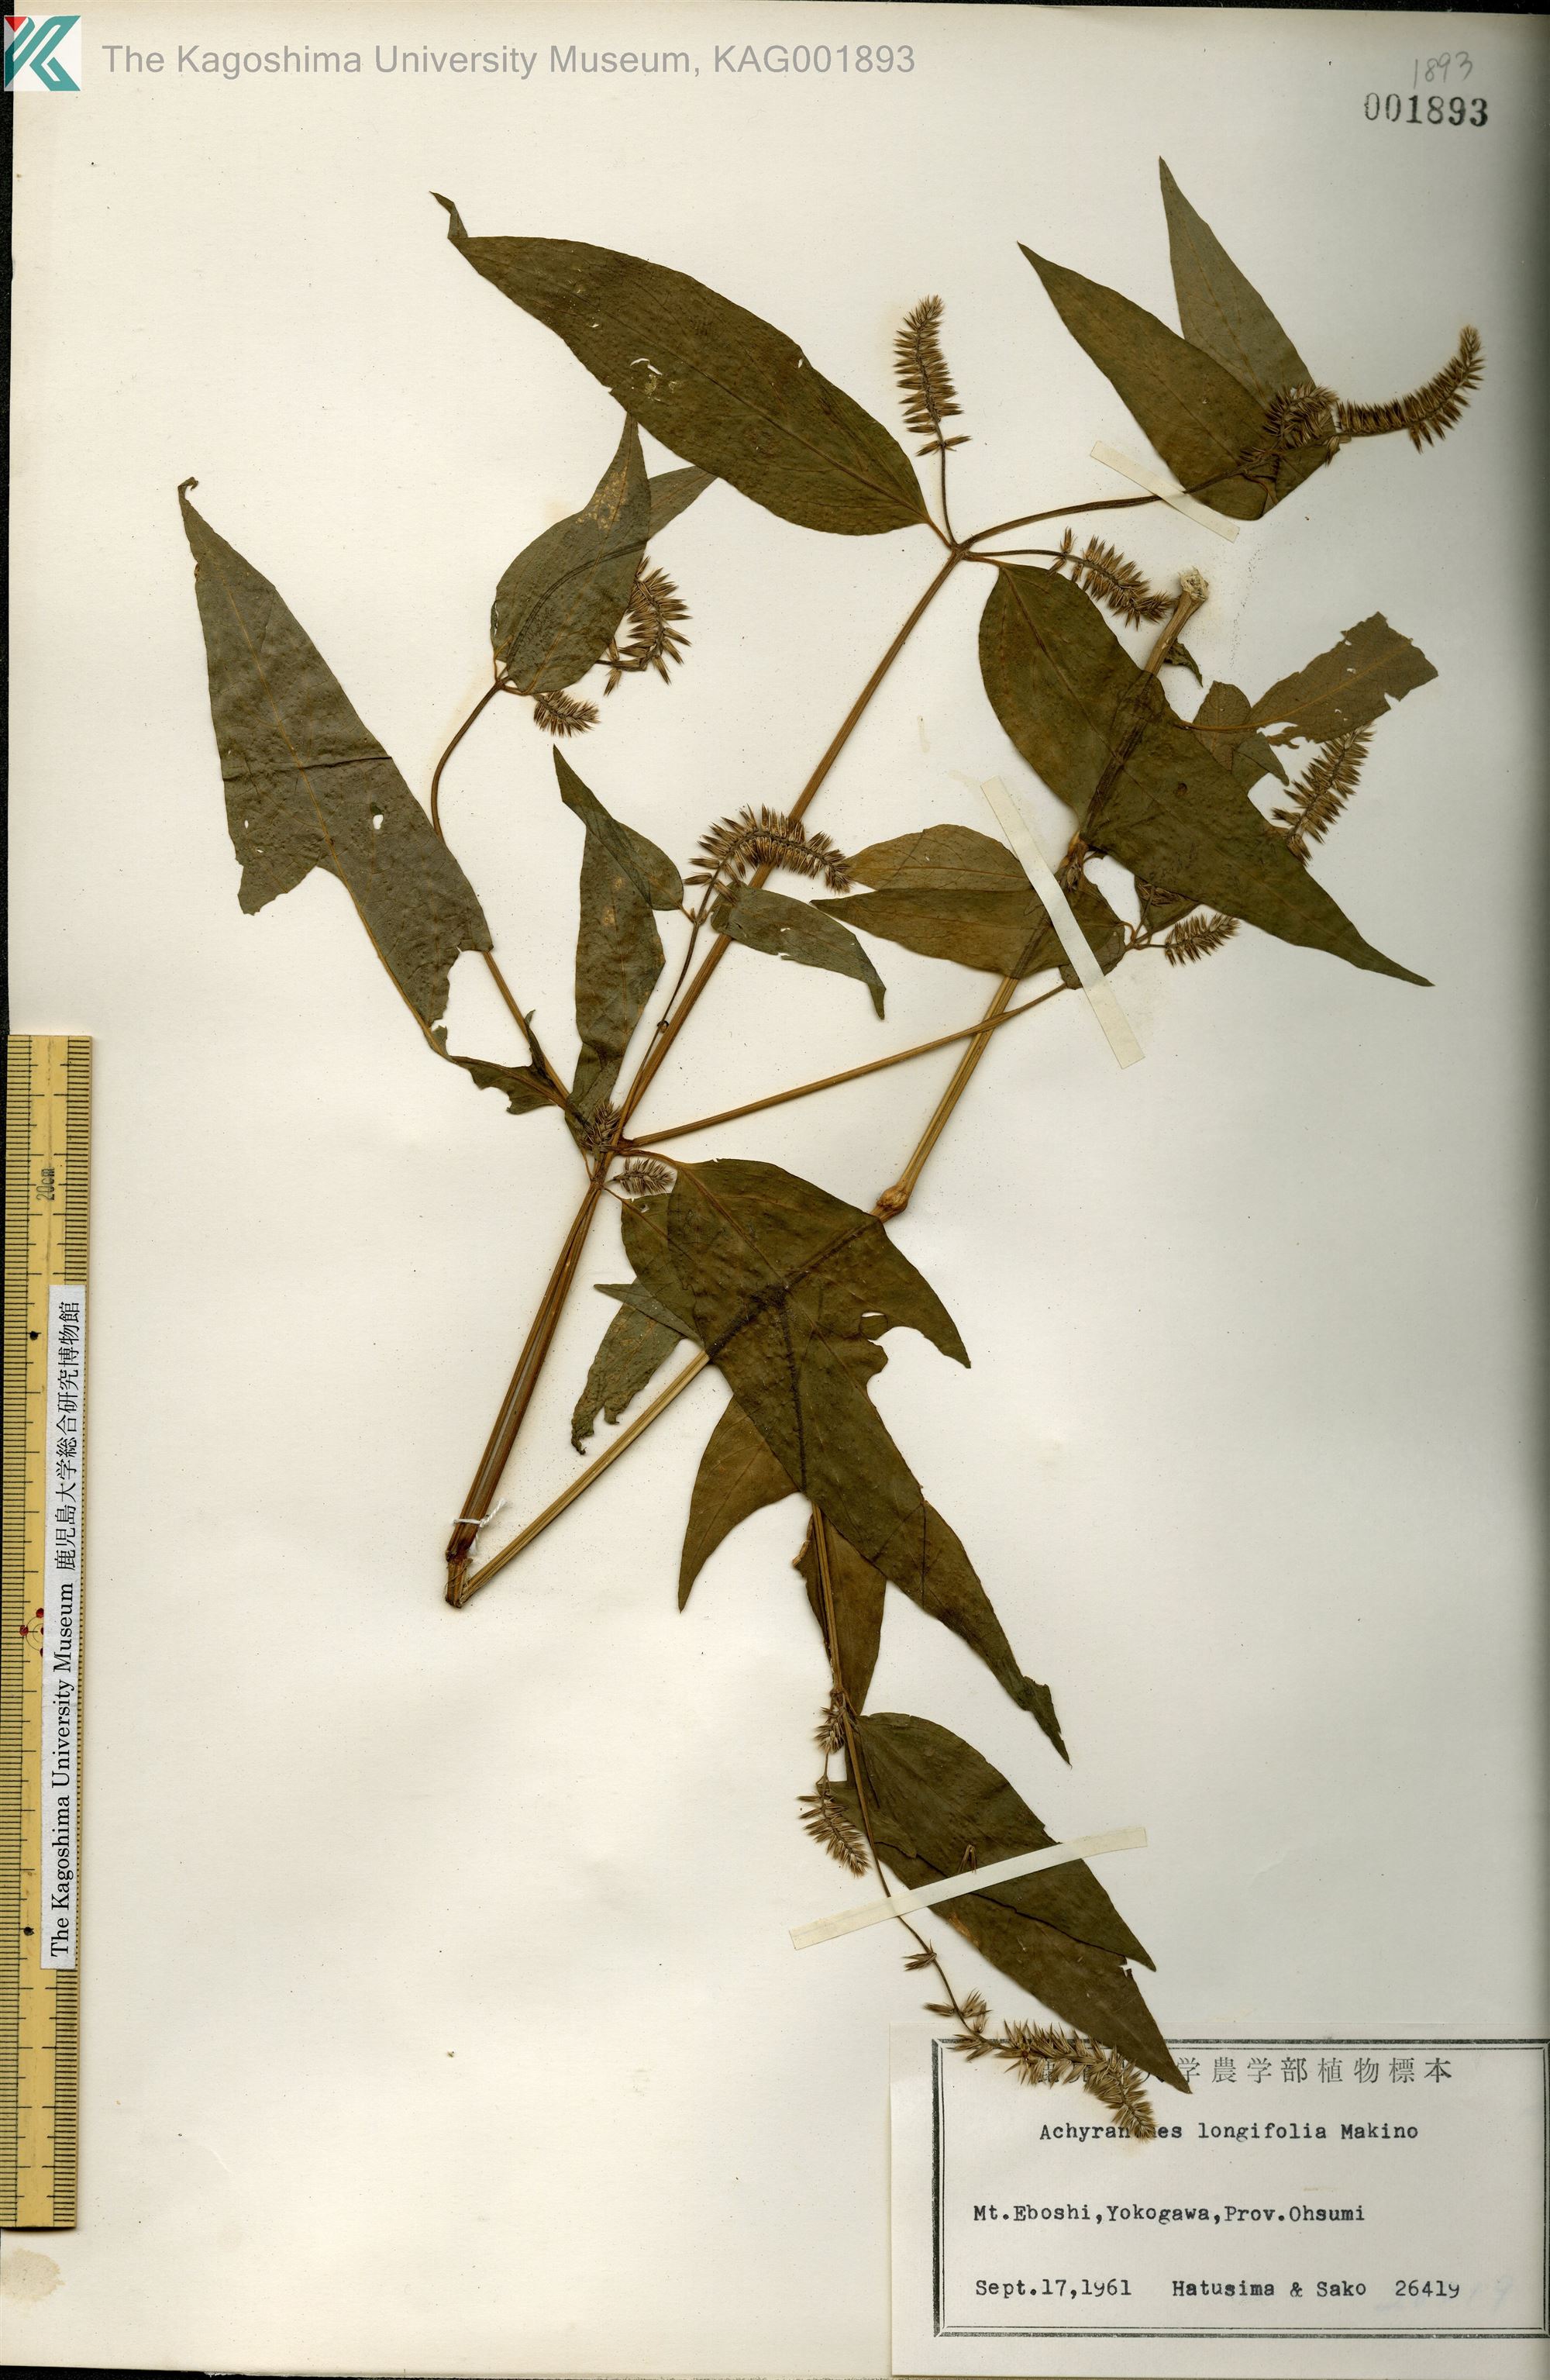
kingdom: Plantae
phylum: Tracheophyta
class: Magnoliopsida
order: Caryophyllales
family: Amaranthaceae
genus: Achyranthes
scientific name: Achyranthes bidentata
